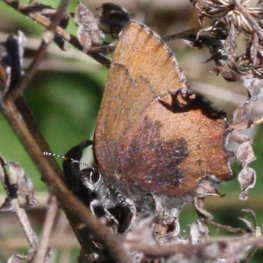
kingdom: Animalia
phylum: Arthropoda
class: Insecta
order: Lepidoptera
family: Lycaenidae
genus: Incisalia
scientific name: Incisalia irioides
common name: Brown Elfin
